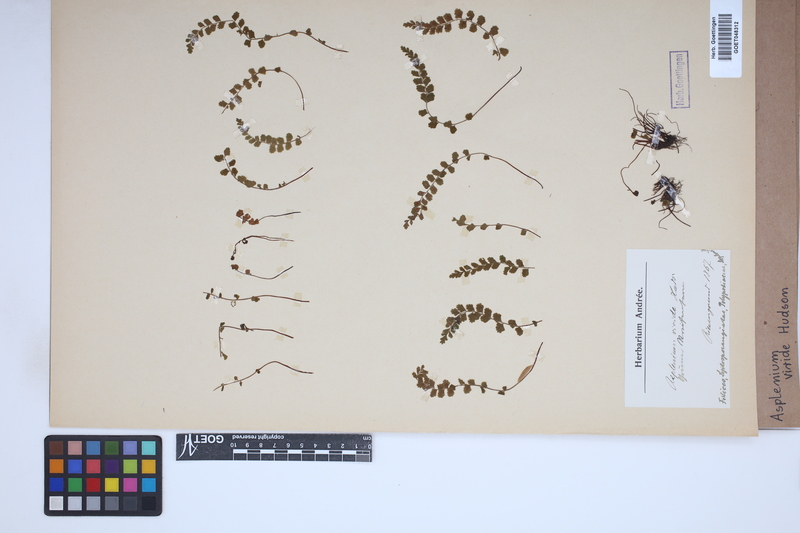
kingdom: Plantae
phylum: Tracheophyta
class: Polypodiopsida
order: Polypodiales
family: Aspleniaceae
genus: Asplenium
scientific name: Asplenium viride
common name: Green spleenwort
